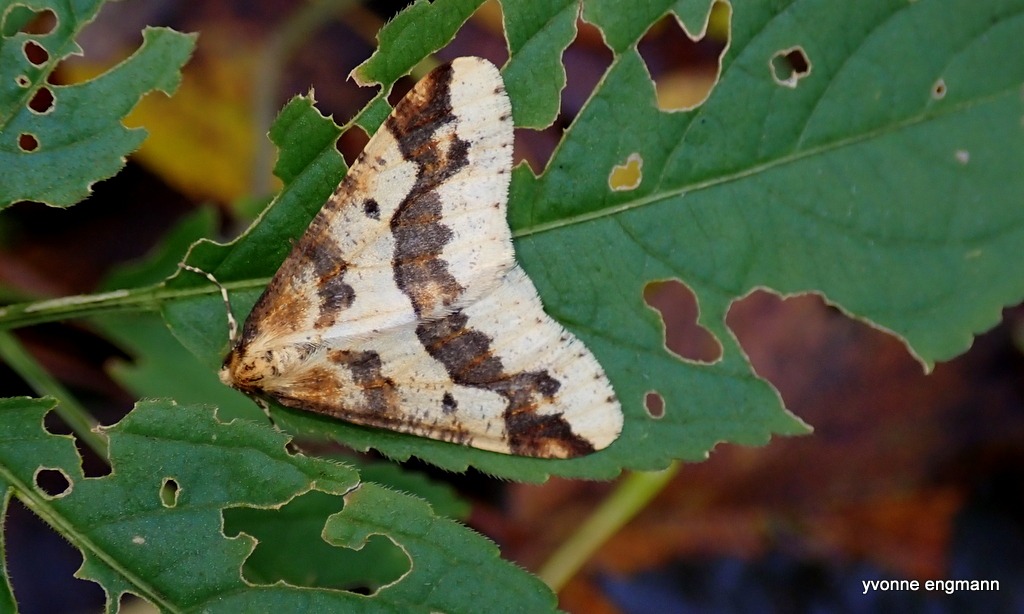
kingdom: Animalia
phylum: Arthropoda
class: Insecta
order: Lepidoptera
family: Geometridae
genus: Erannis
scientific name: Erannis defoliaria
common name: Stor frostmåler
